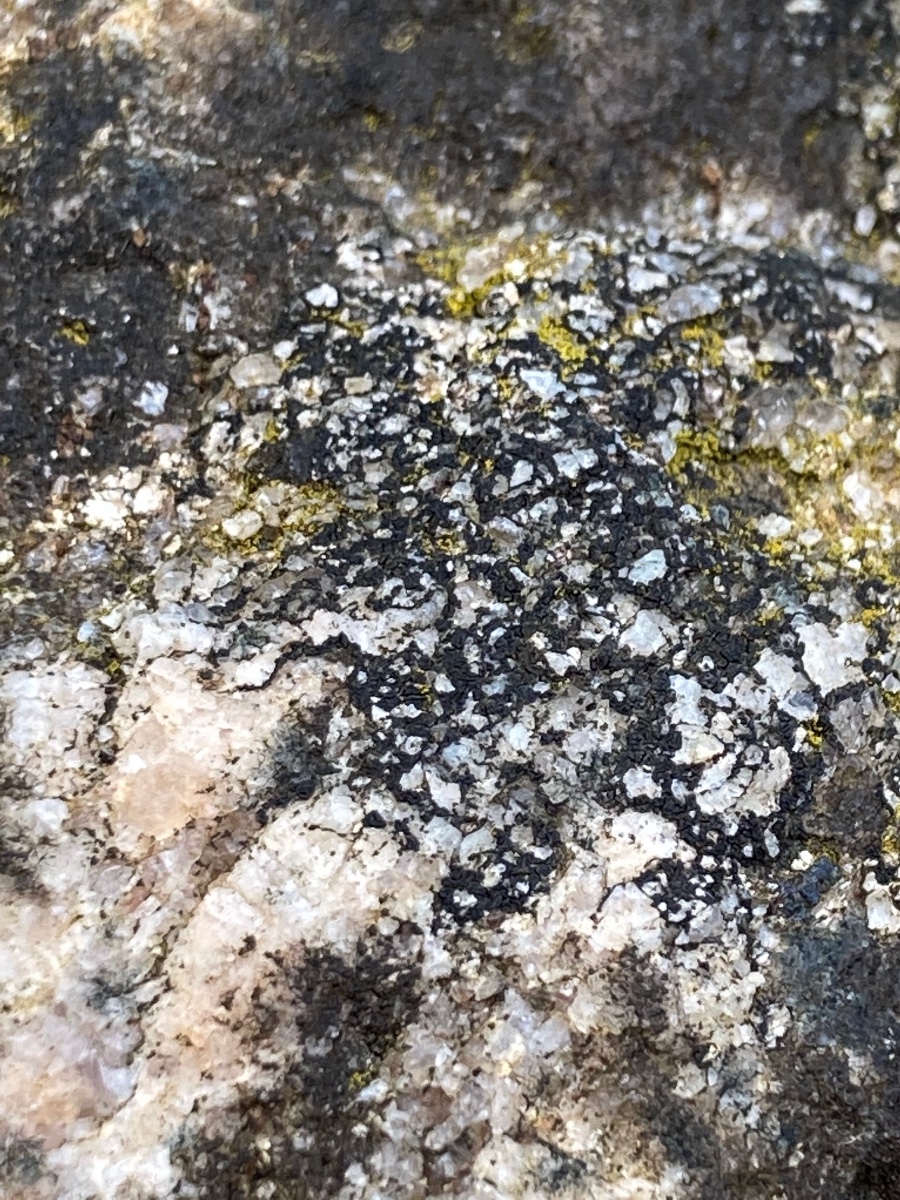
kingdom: Fungi
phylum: Ascomycota
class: Lecanoromycetes
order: Acarosporales
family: Acarosporaceae
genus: Acarospora
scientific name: Acarospora privigna
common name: sort foldekantlav
